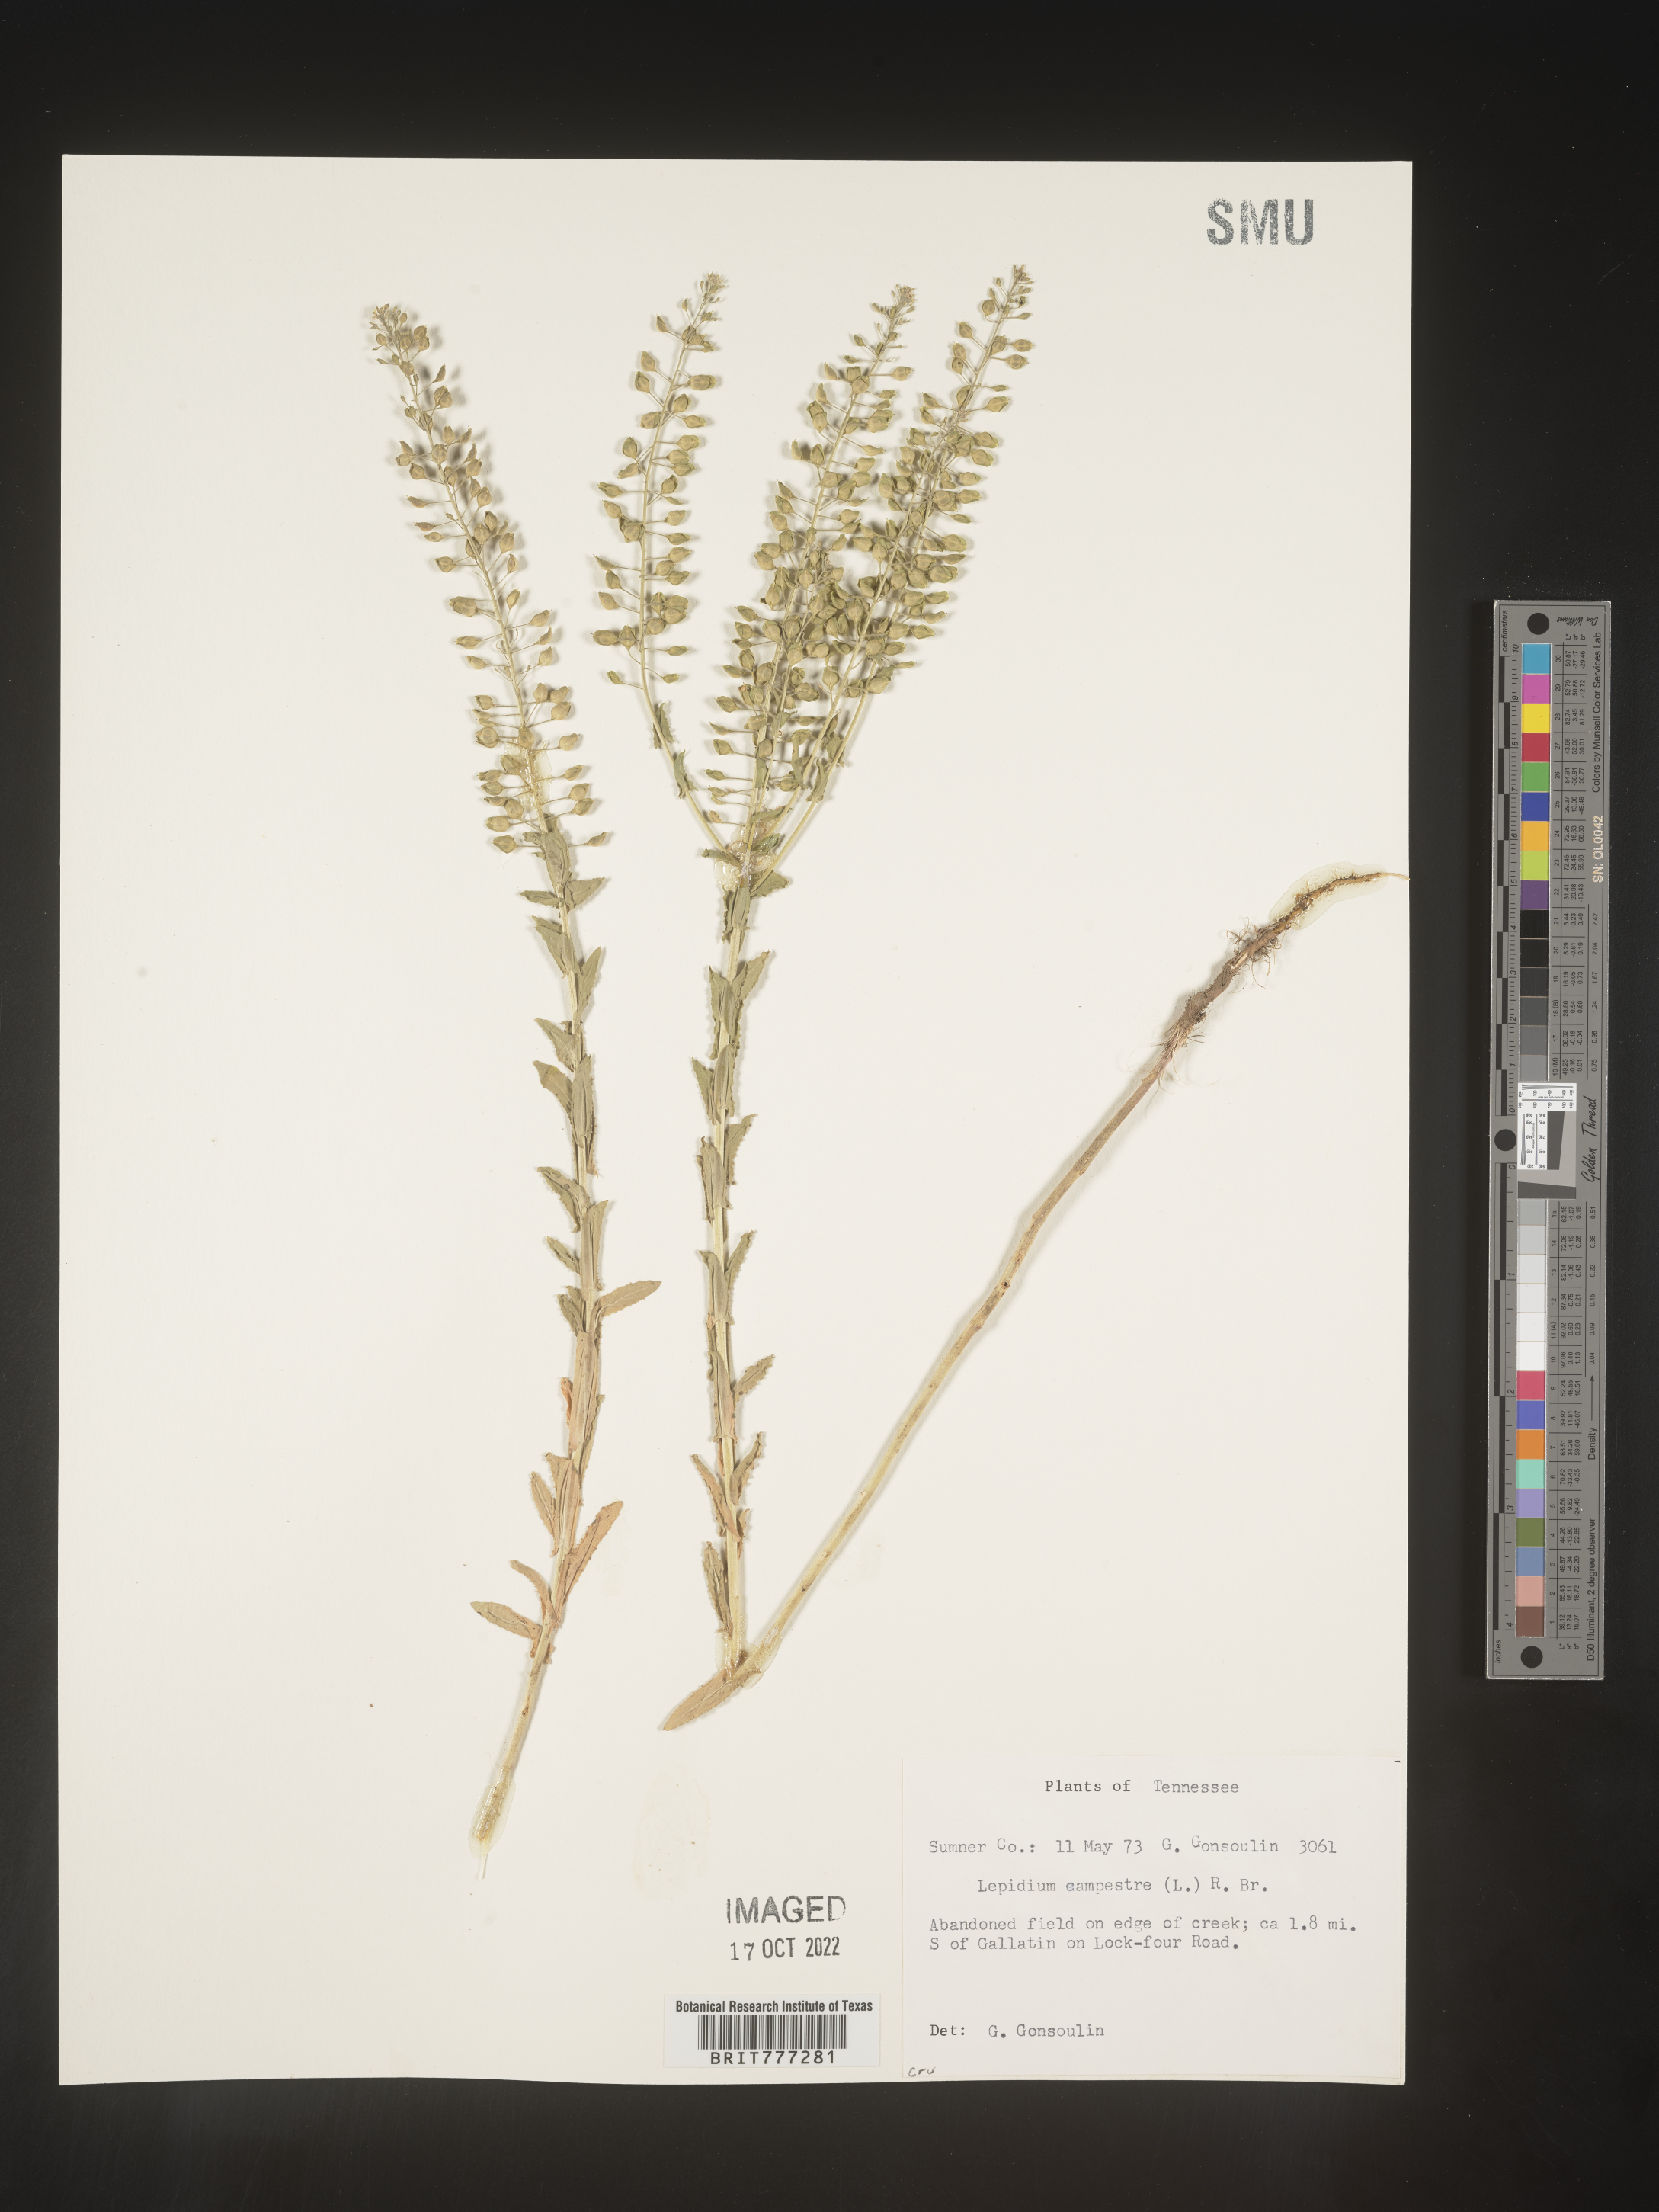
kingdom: Plantae
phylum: Tracheophyta
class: Magnoliopsida
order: Brassicales
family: Brassicaceae
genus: Lepidium
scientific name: Lepidium campestre
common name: Field pepperwort
